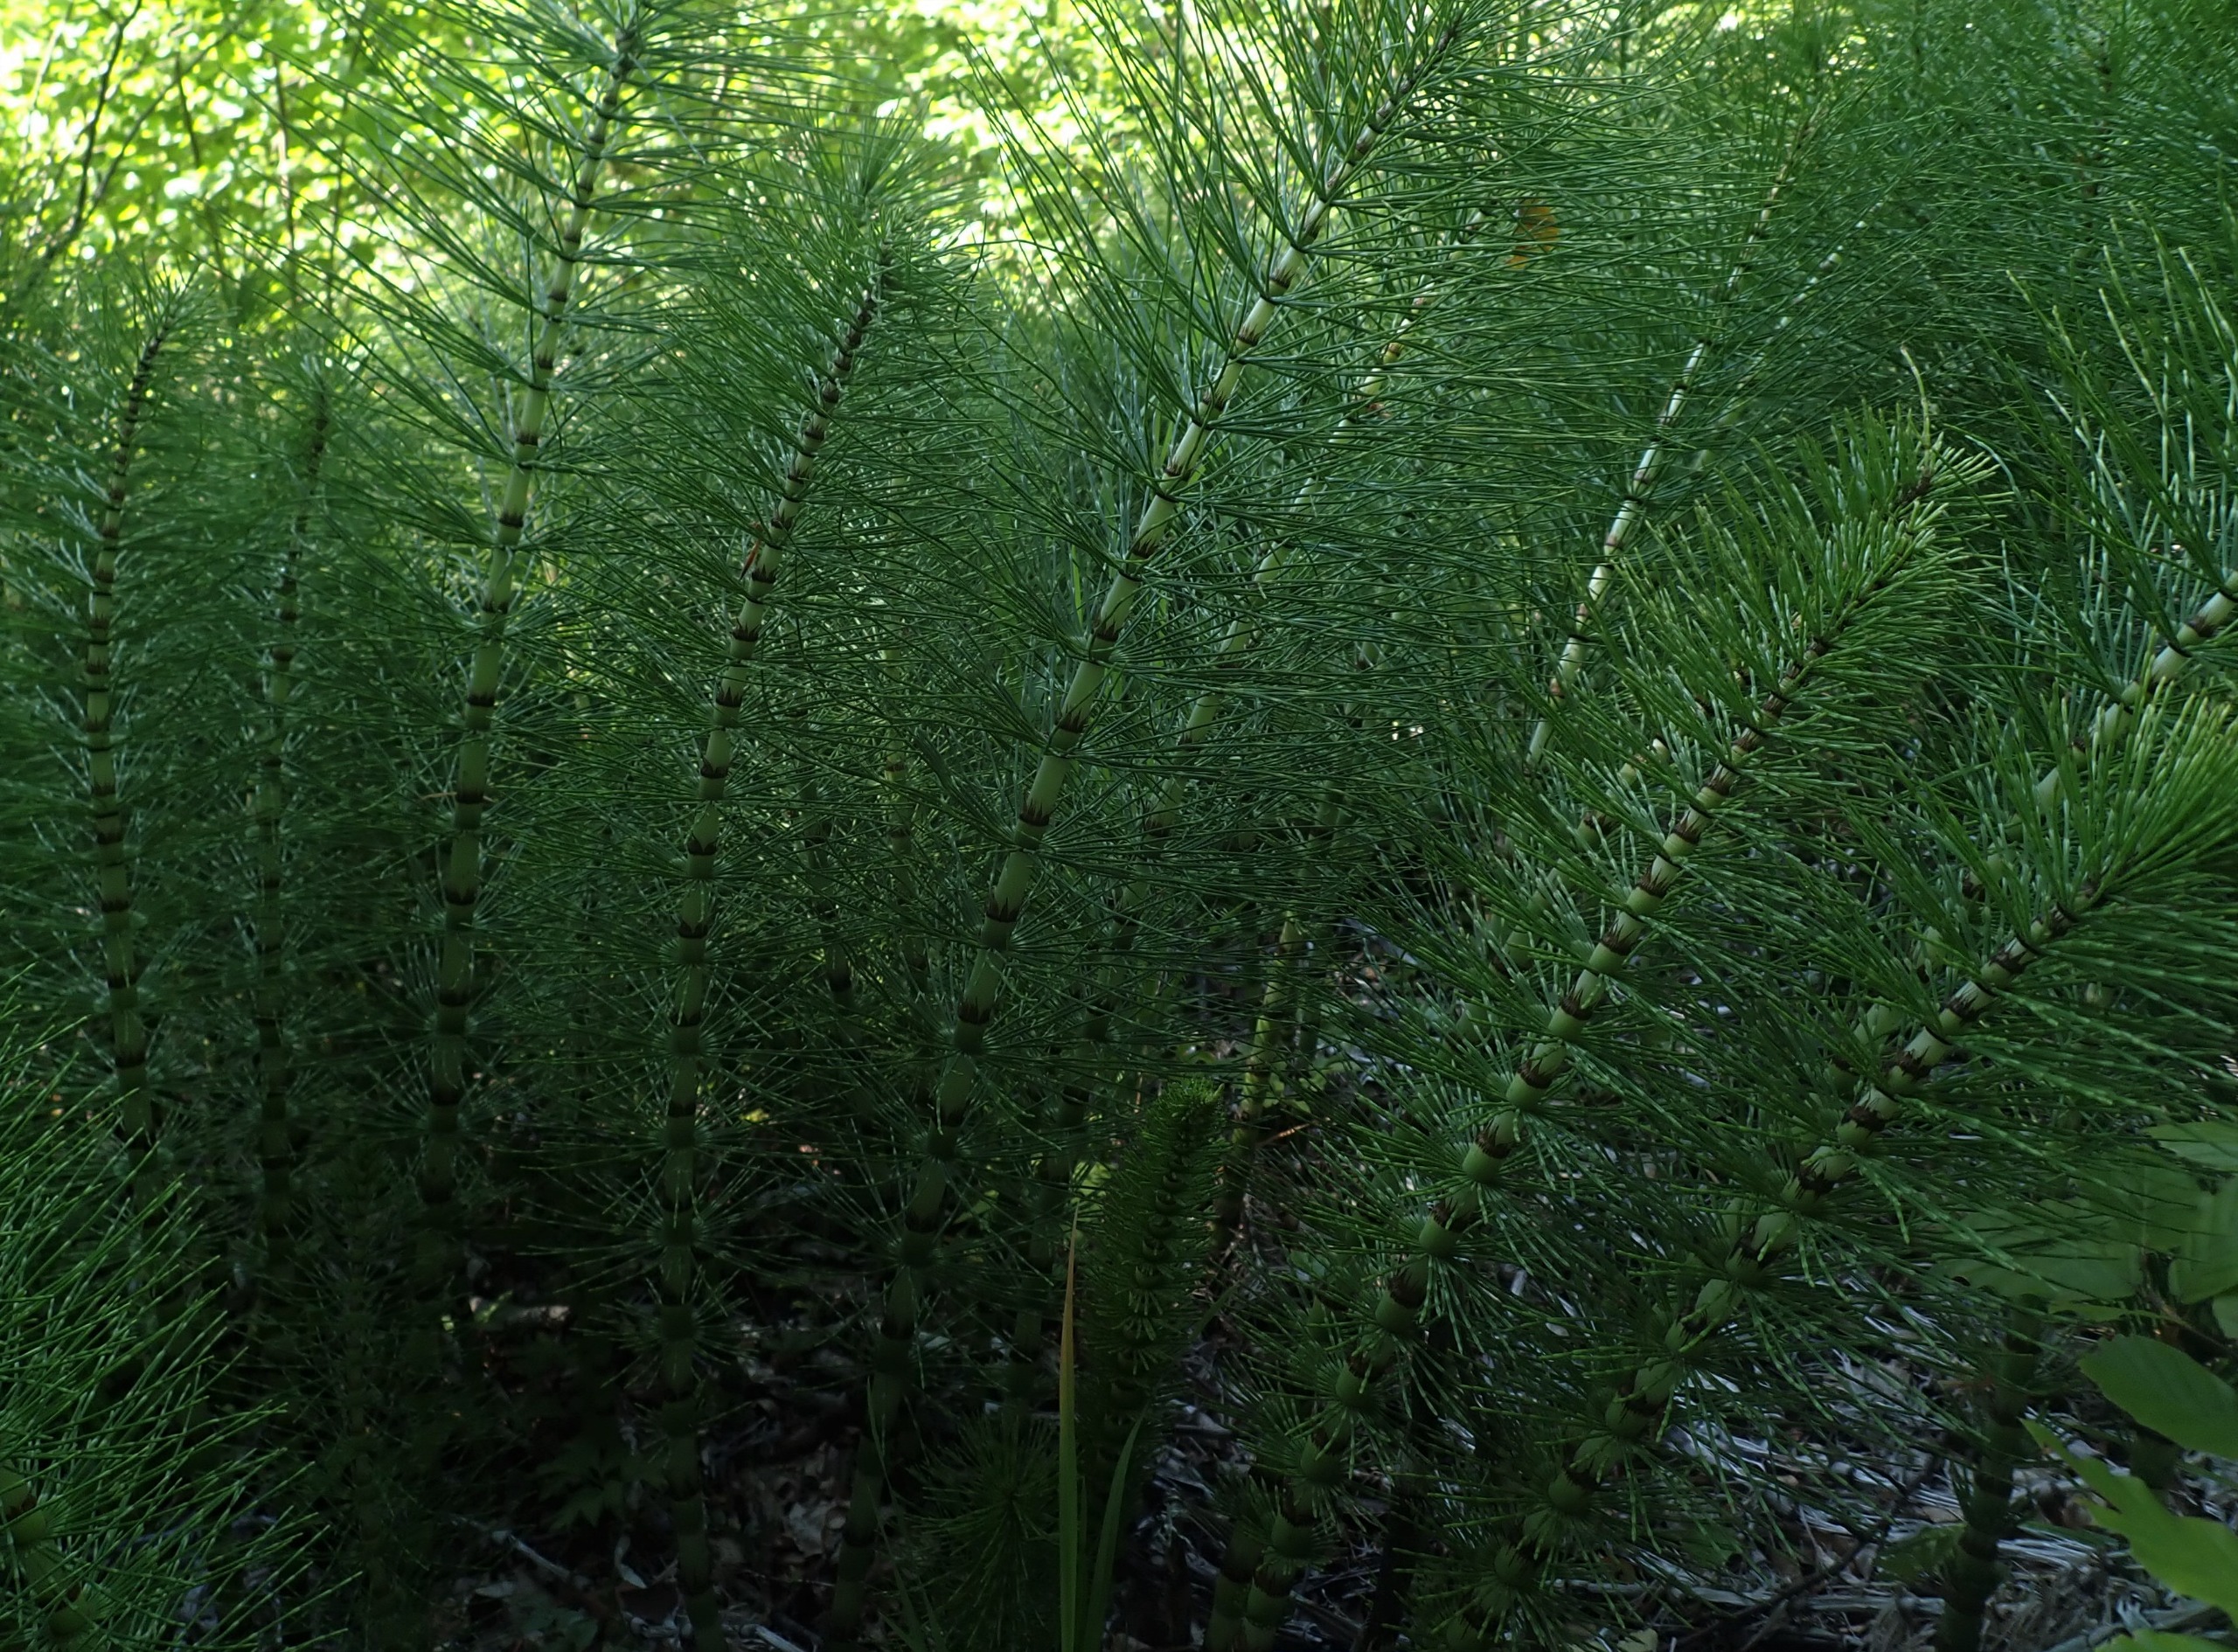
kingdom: Plantae
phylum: Tracheophyta
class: Polypodiopsida
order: Equisetales
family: Equisetaceae
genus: Equisetum
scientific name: Equisetum telmateia
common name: Elfenbens-padderok
